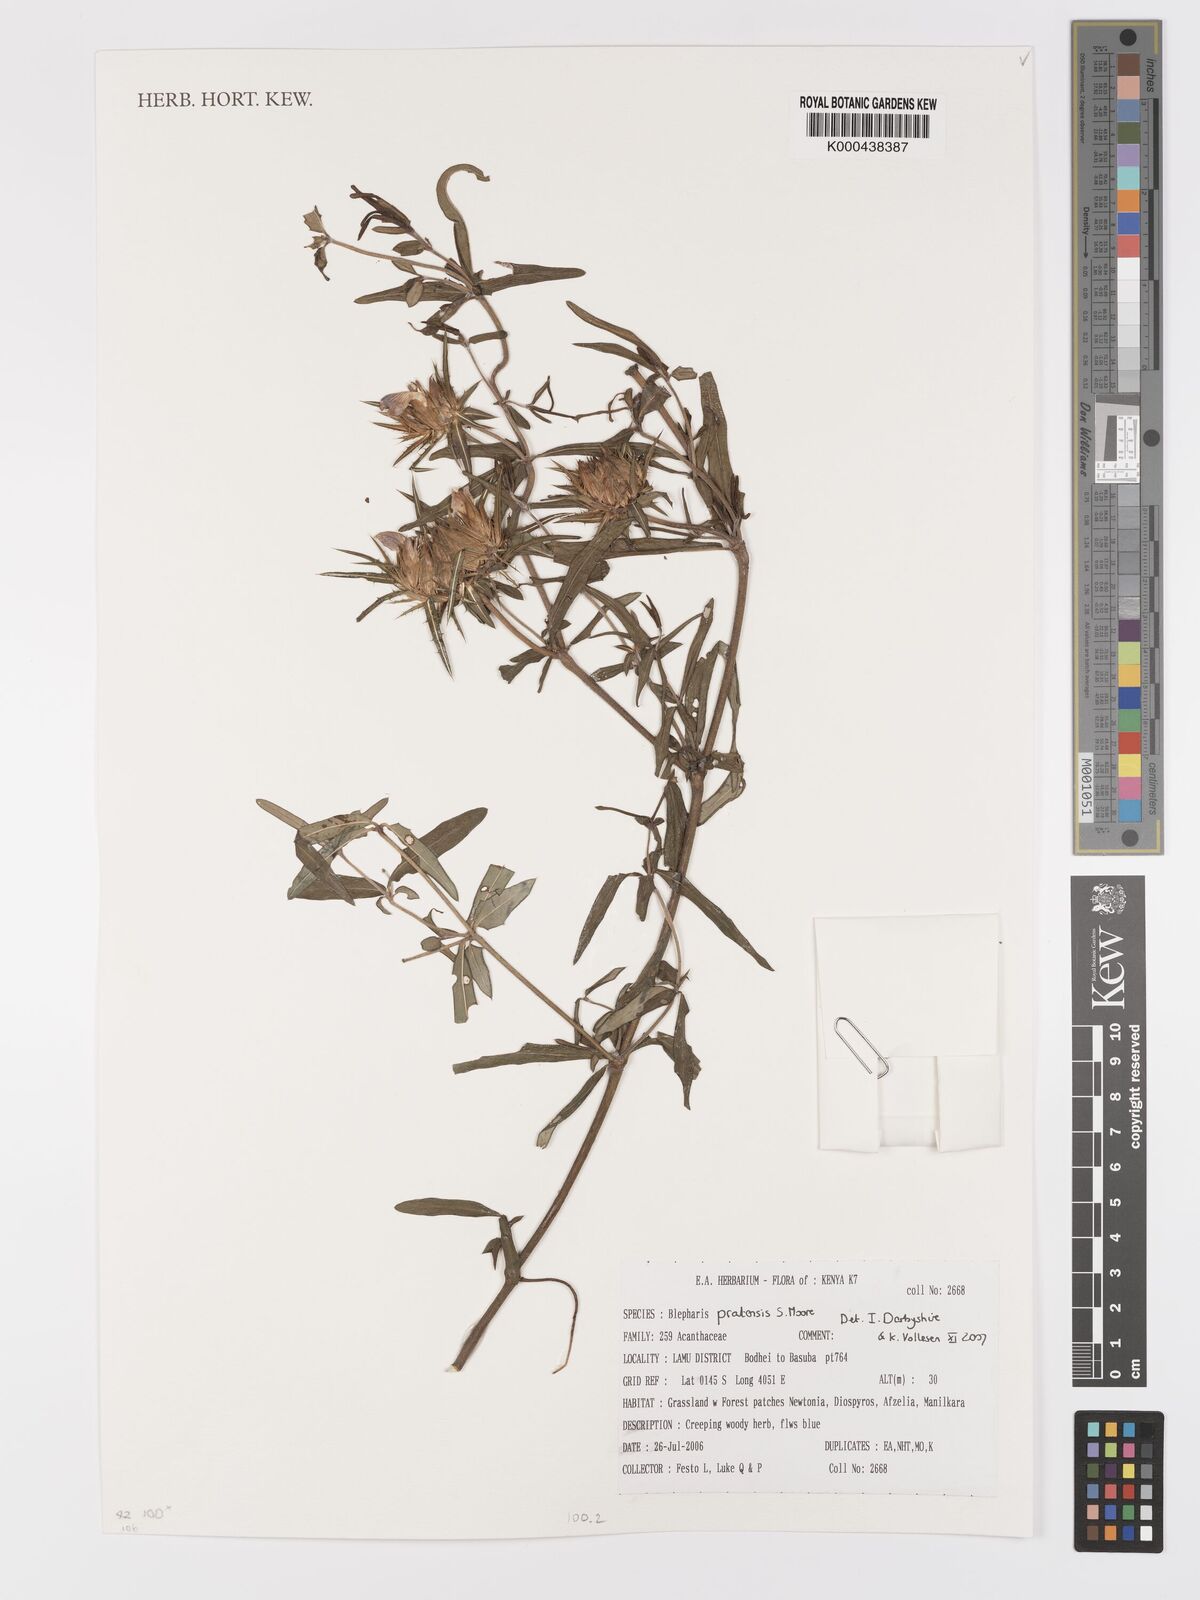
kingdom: Plantae
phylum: Tracheophyta
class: Magnoliopsida
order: Lamiales
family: Acanthaceae
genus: Blepharis
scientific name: Blepharis pratensis
